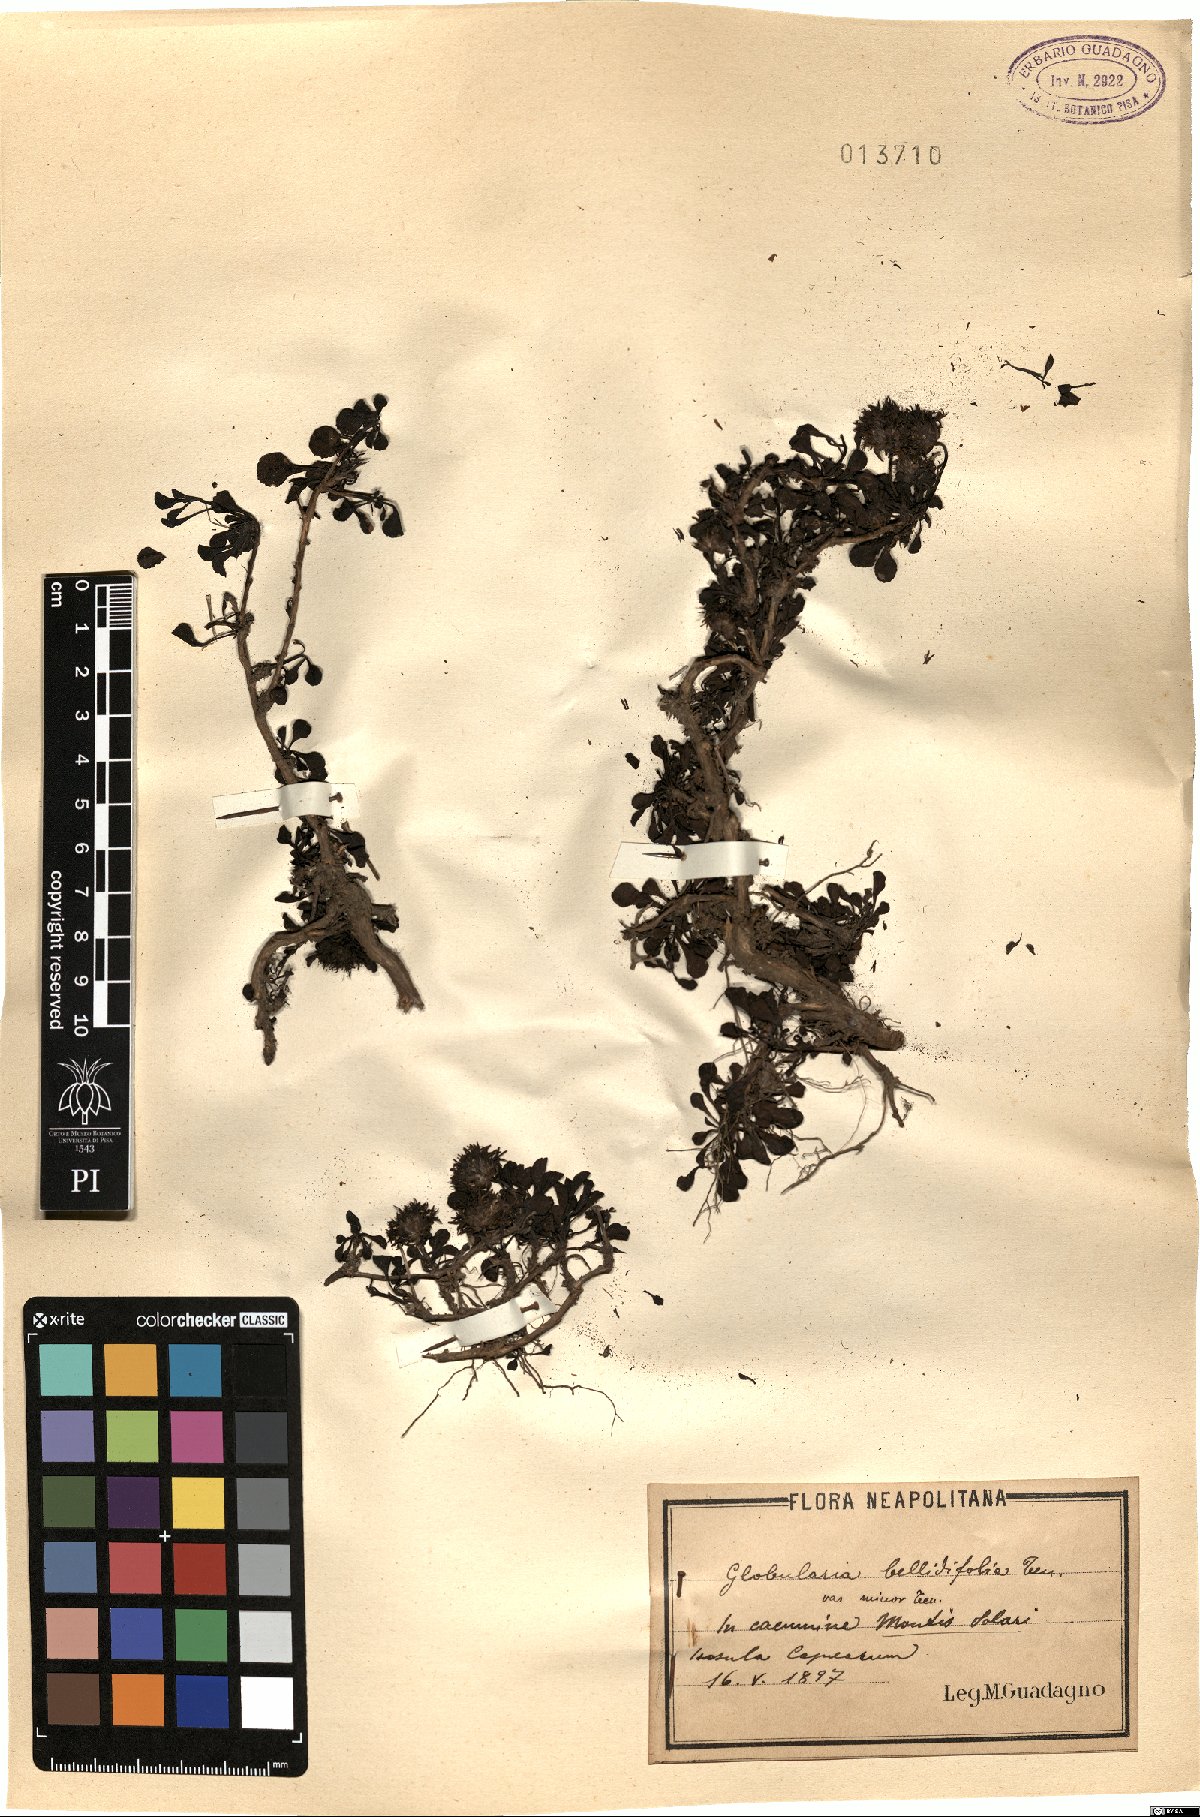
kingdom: Plantae
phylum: Tracheophyta
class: Magnoliopsida
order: Lamiales
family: Plantaginaceae
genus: Globularia
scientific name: Globularia cordifolia
